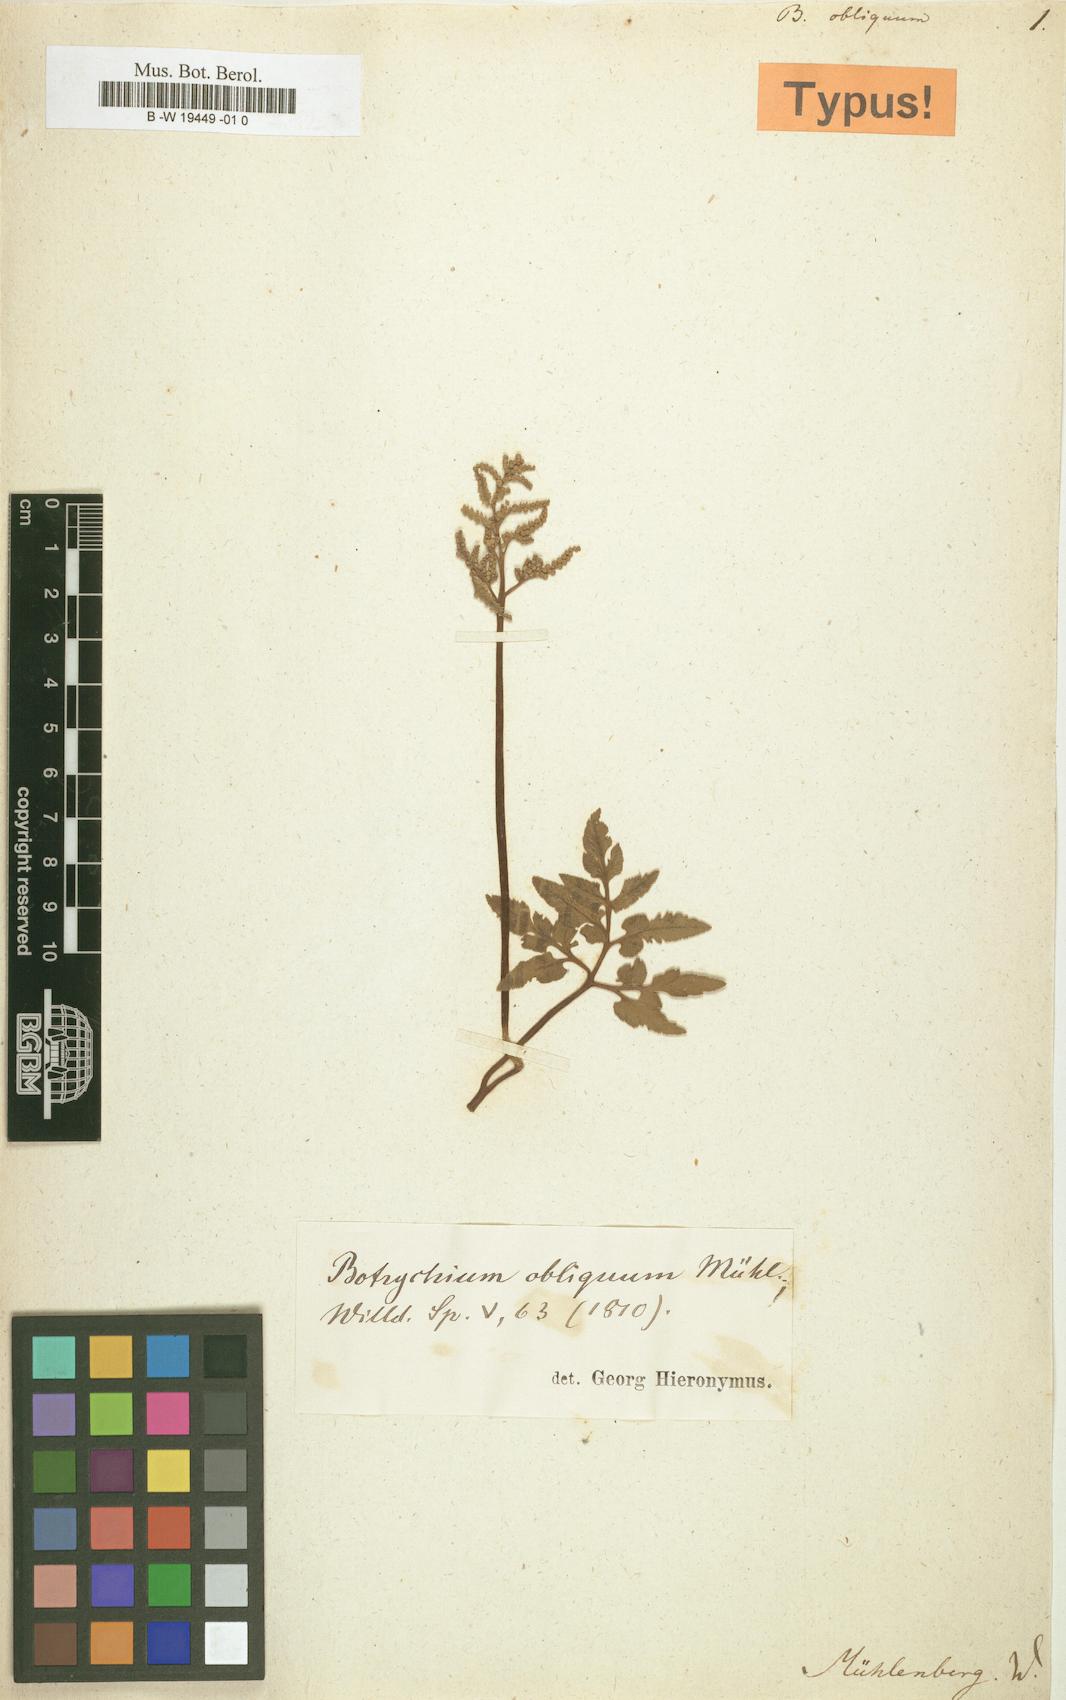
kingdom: Plantae
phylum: Tracheophyta
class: Polypodiopsida
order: Ophioglossales
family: Ophioglossaceae
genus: Sceptridium
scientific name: Sceptridium dissectum
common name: Cut-leaved grapefern
